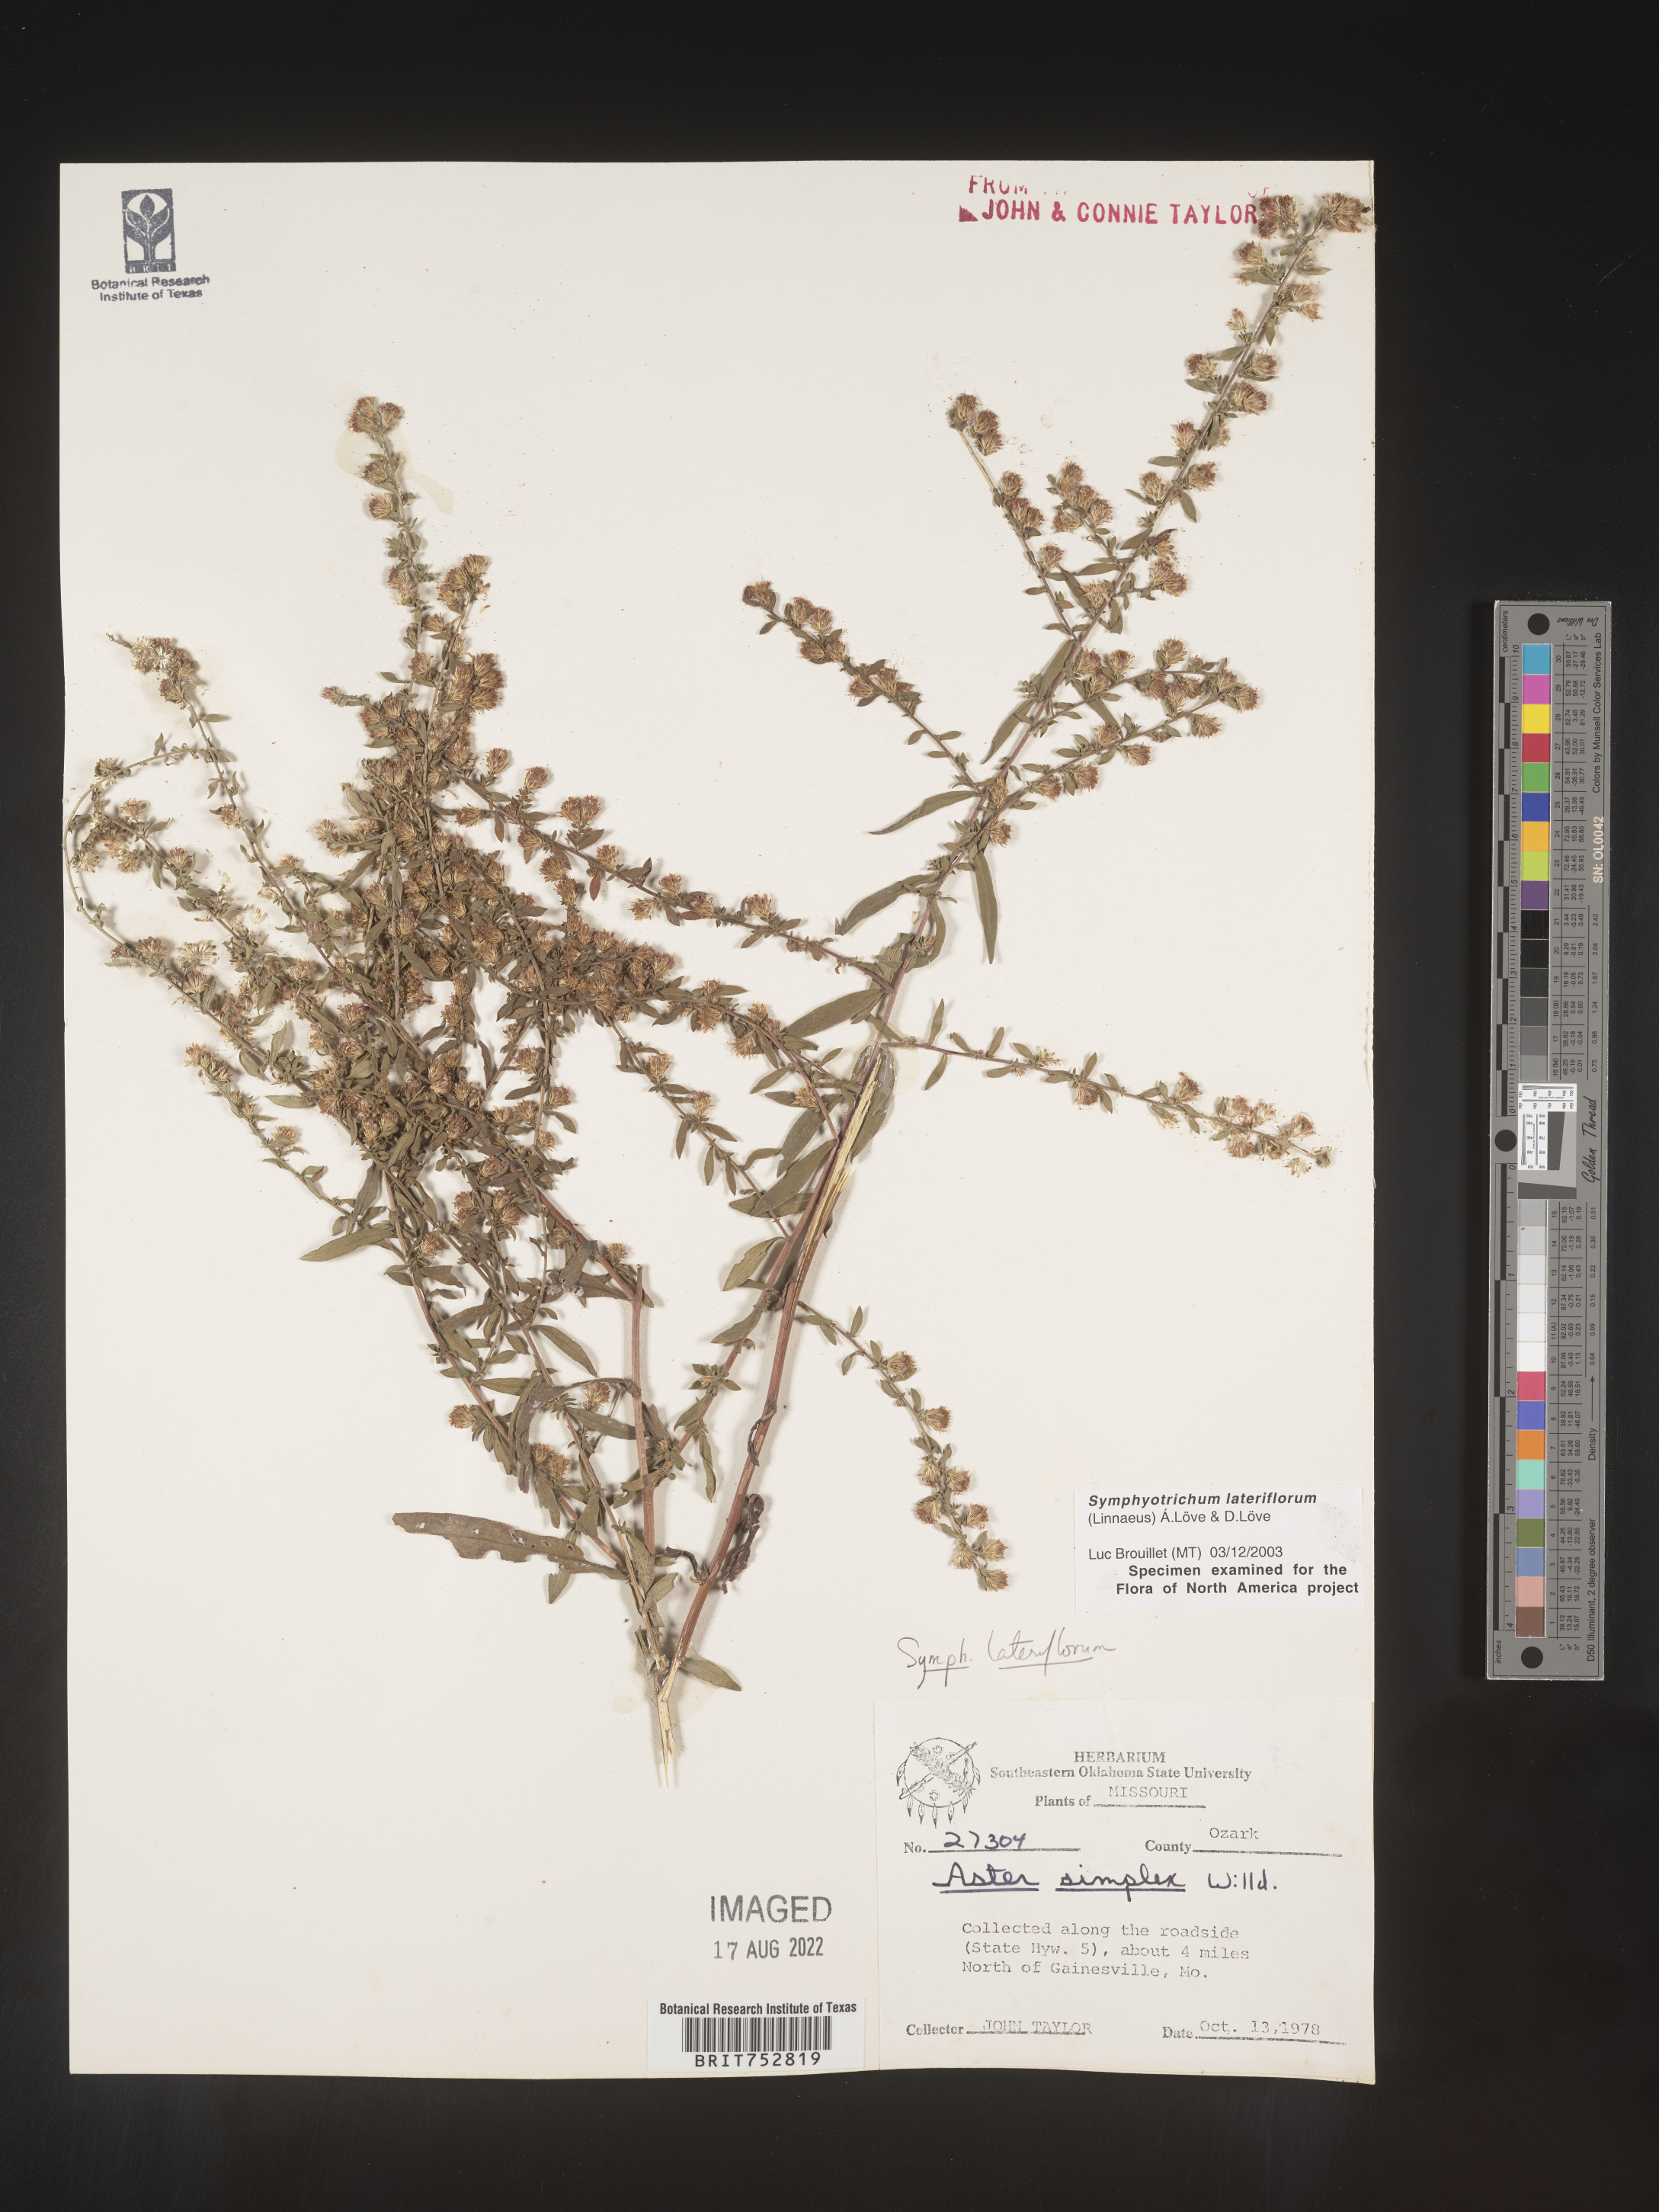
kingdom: Plantae
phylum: Tracheophyta
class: Magnoliopsida
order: Asterales
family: Asteraceae
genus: Symphyotrichum
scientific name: Symphyotrichum lateriflorum
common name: Calico aster
